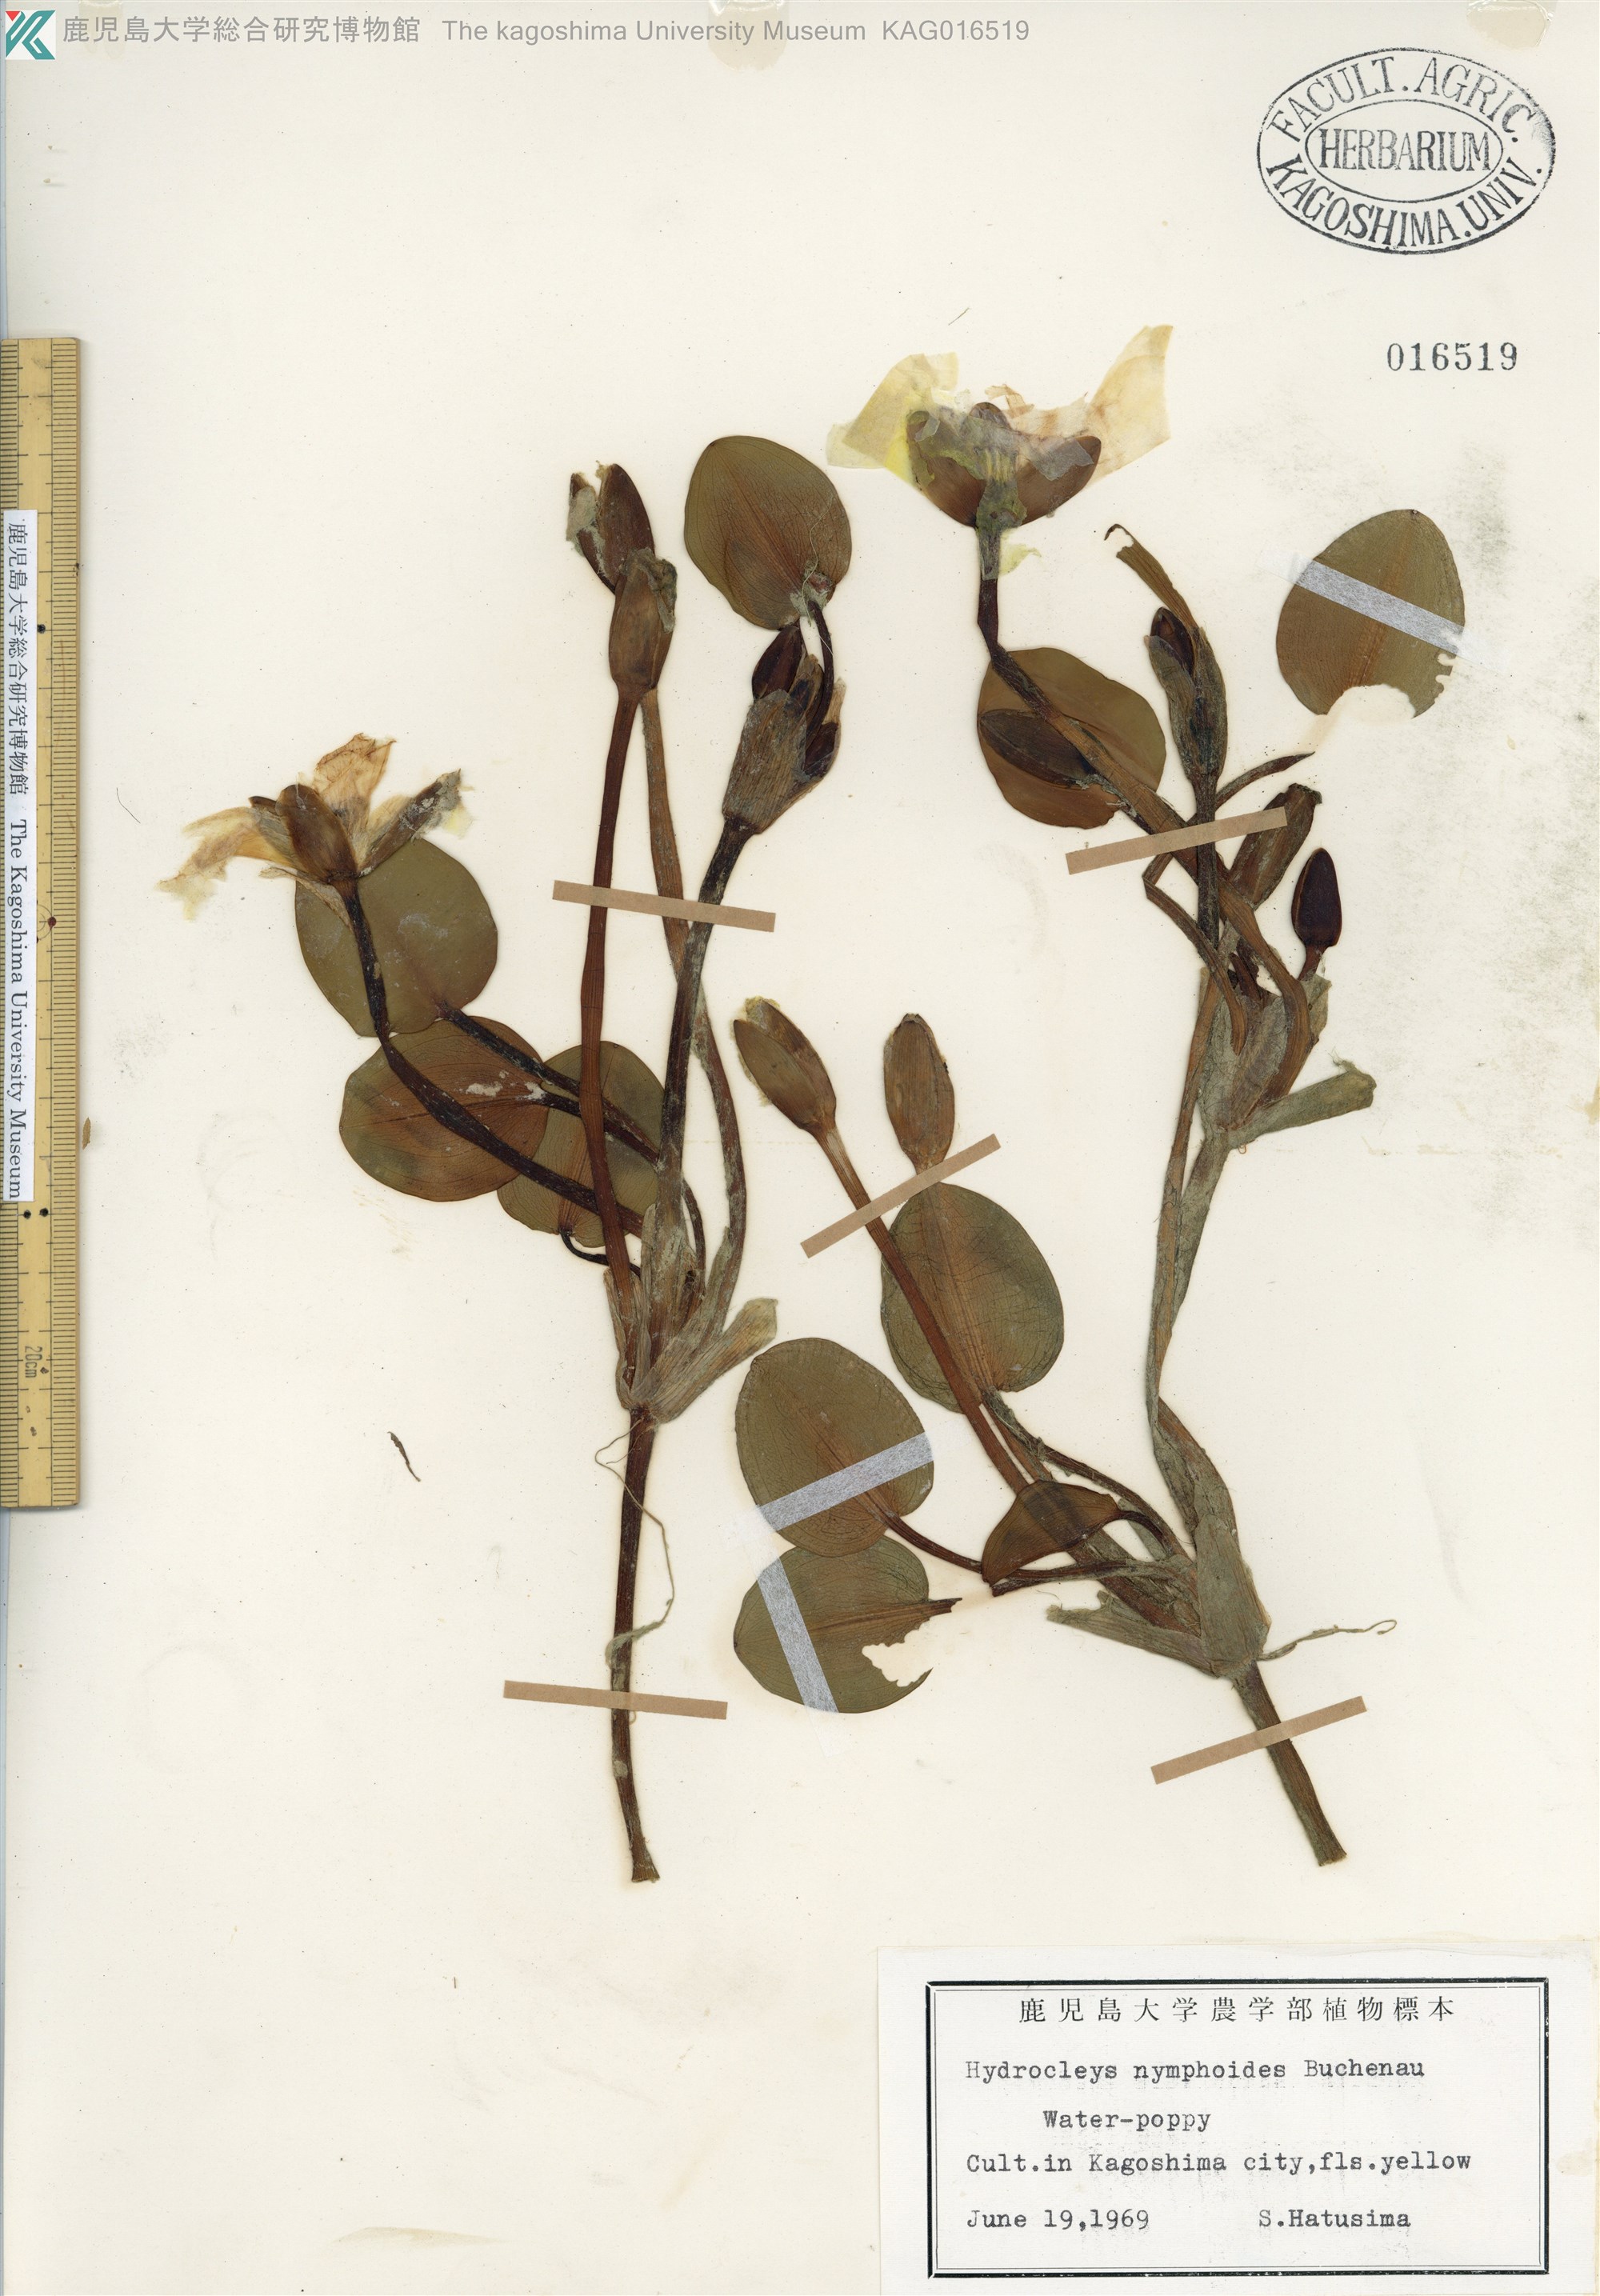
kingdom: Plantae
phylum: Tracheophyta
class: Liliopsida
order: Alismatales
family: Alismataceae
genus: Hydrocleys
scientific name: Hydrocleys nymphoides
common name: Water-poppy
